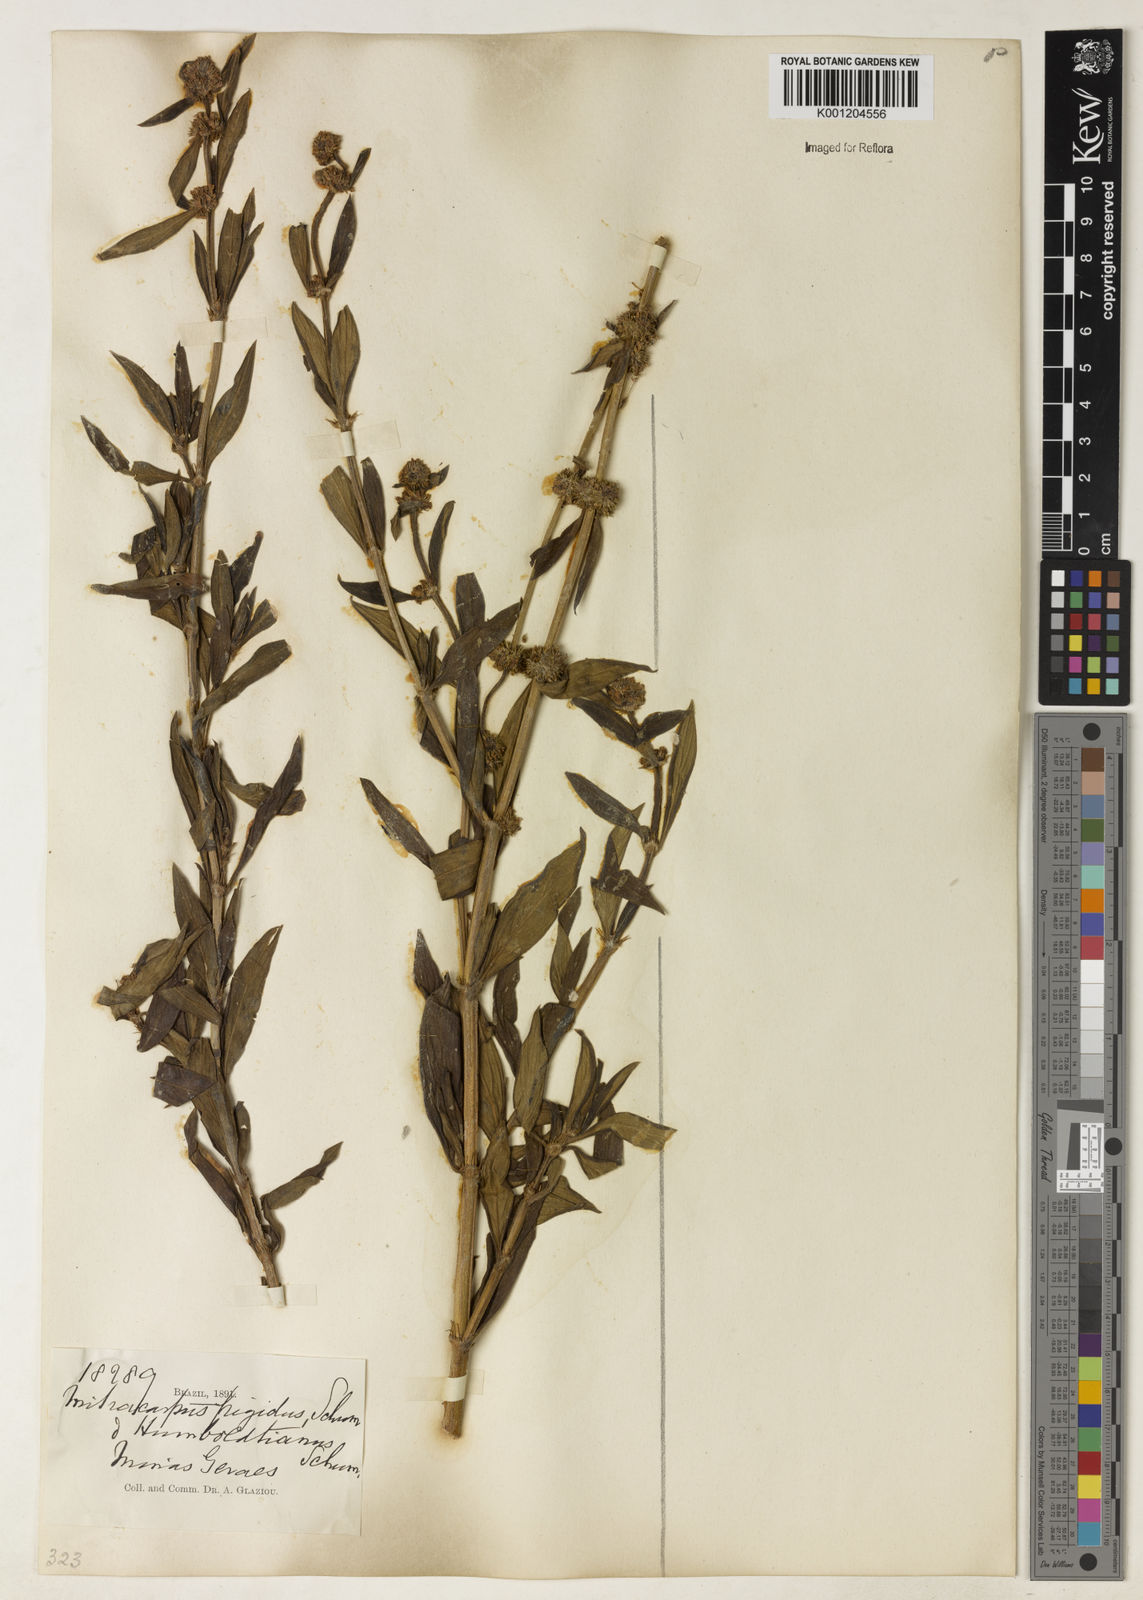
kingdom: Plantae
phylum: Tracheophyta
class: Magnoliopsida
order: Gentianales
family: Rubiaceae
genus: Mitracarpus
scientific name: Mitracarpus
